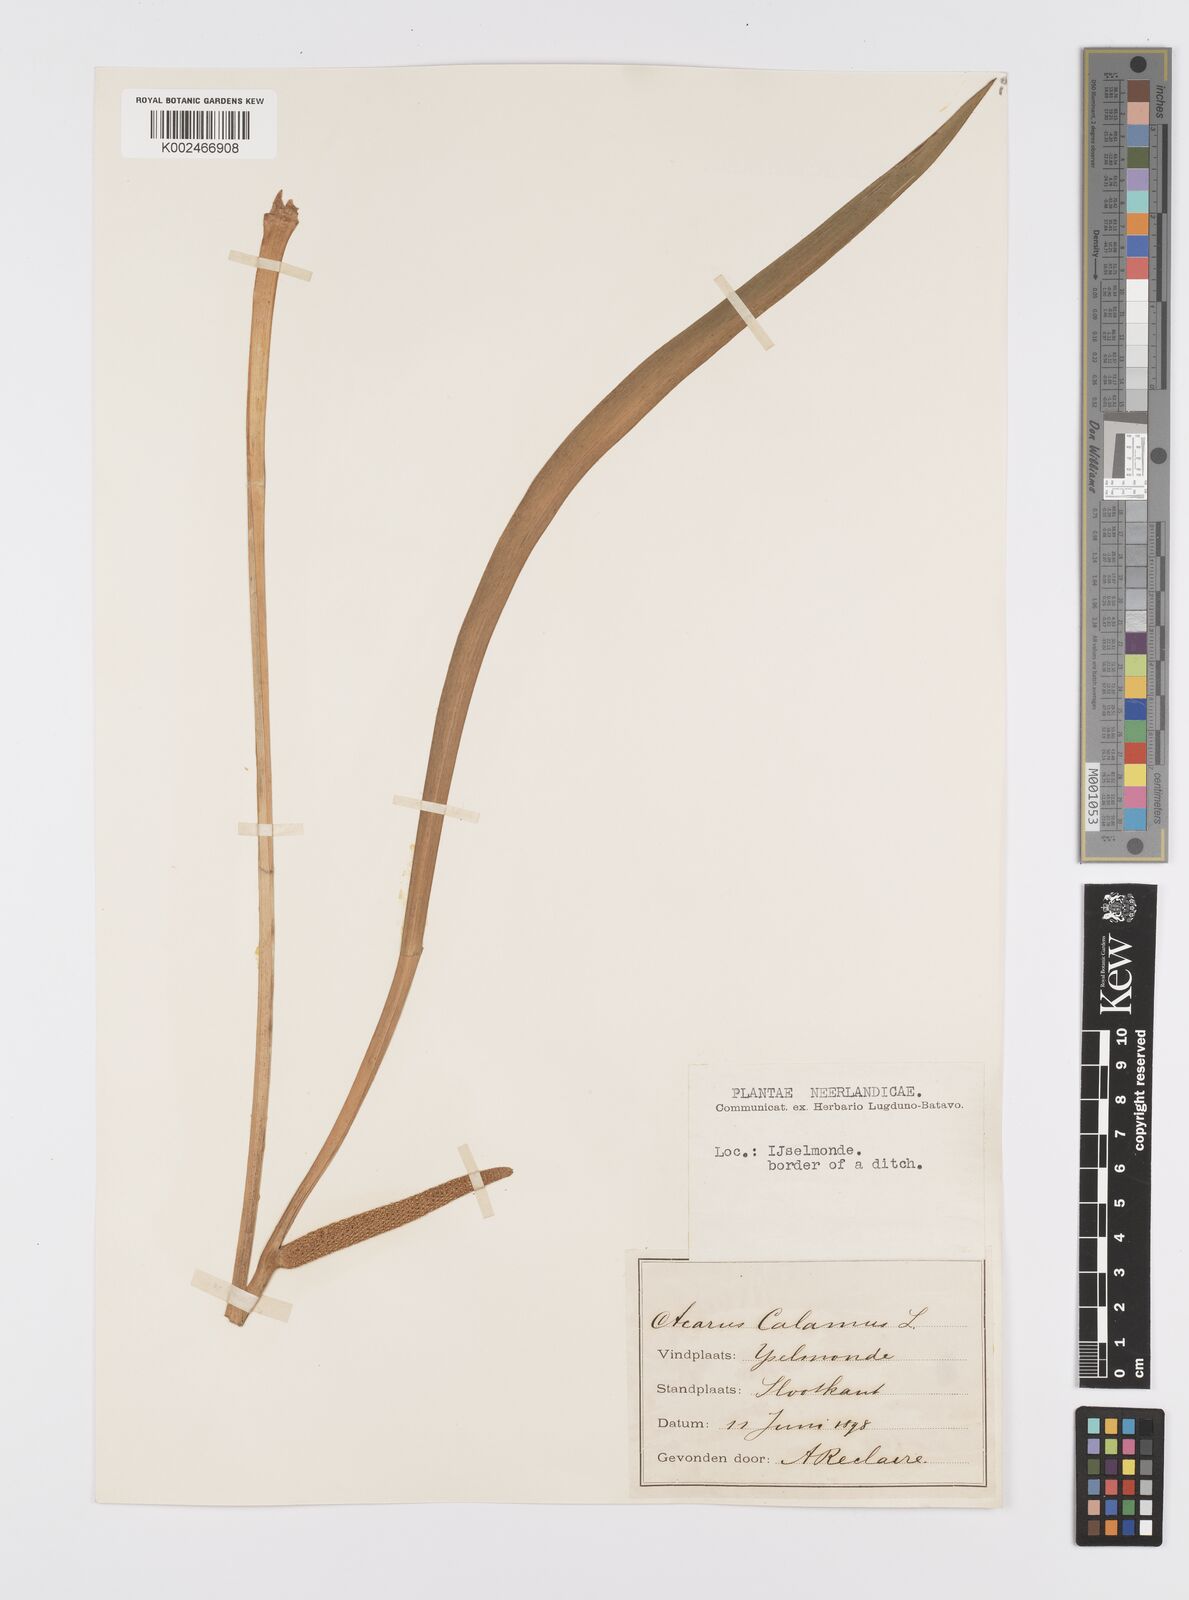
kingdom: Plantae
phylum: Tracheophyta
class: Liliopsida
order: Acorales
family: Acoraceae
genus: Acorus
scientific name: Acorus calamus
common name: Sweet-flag
